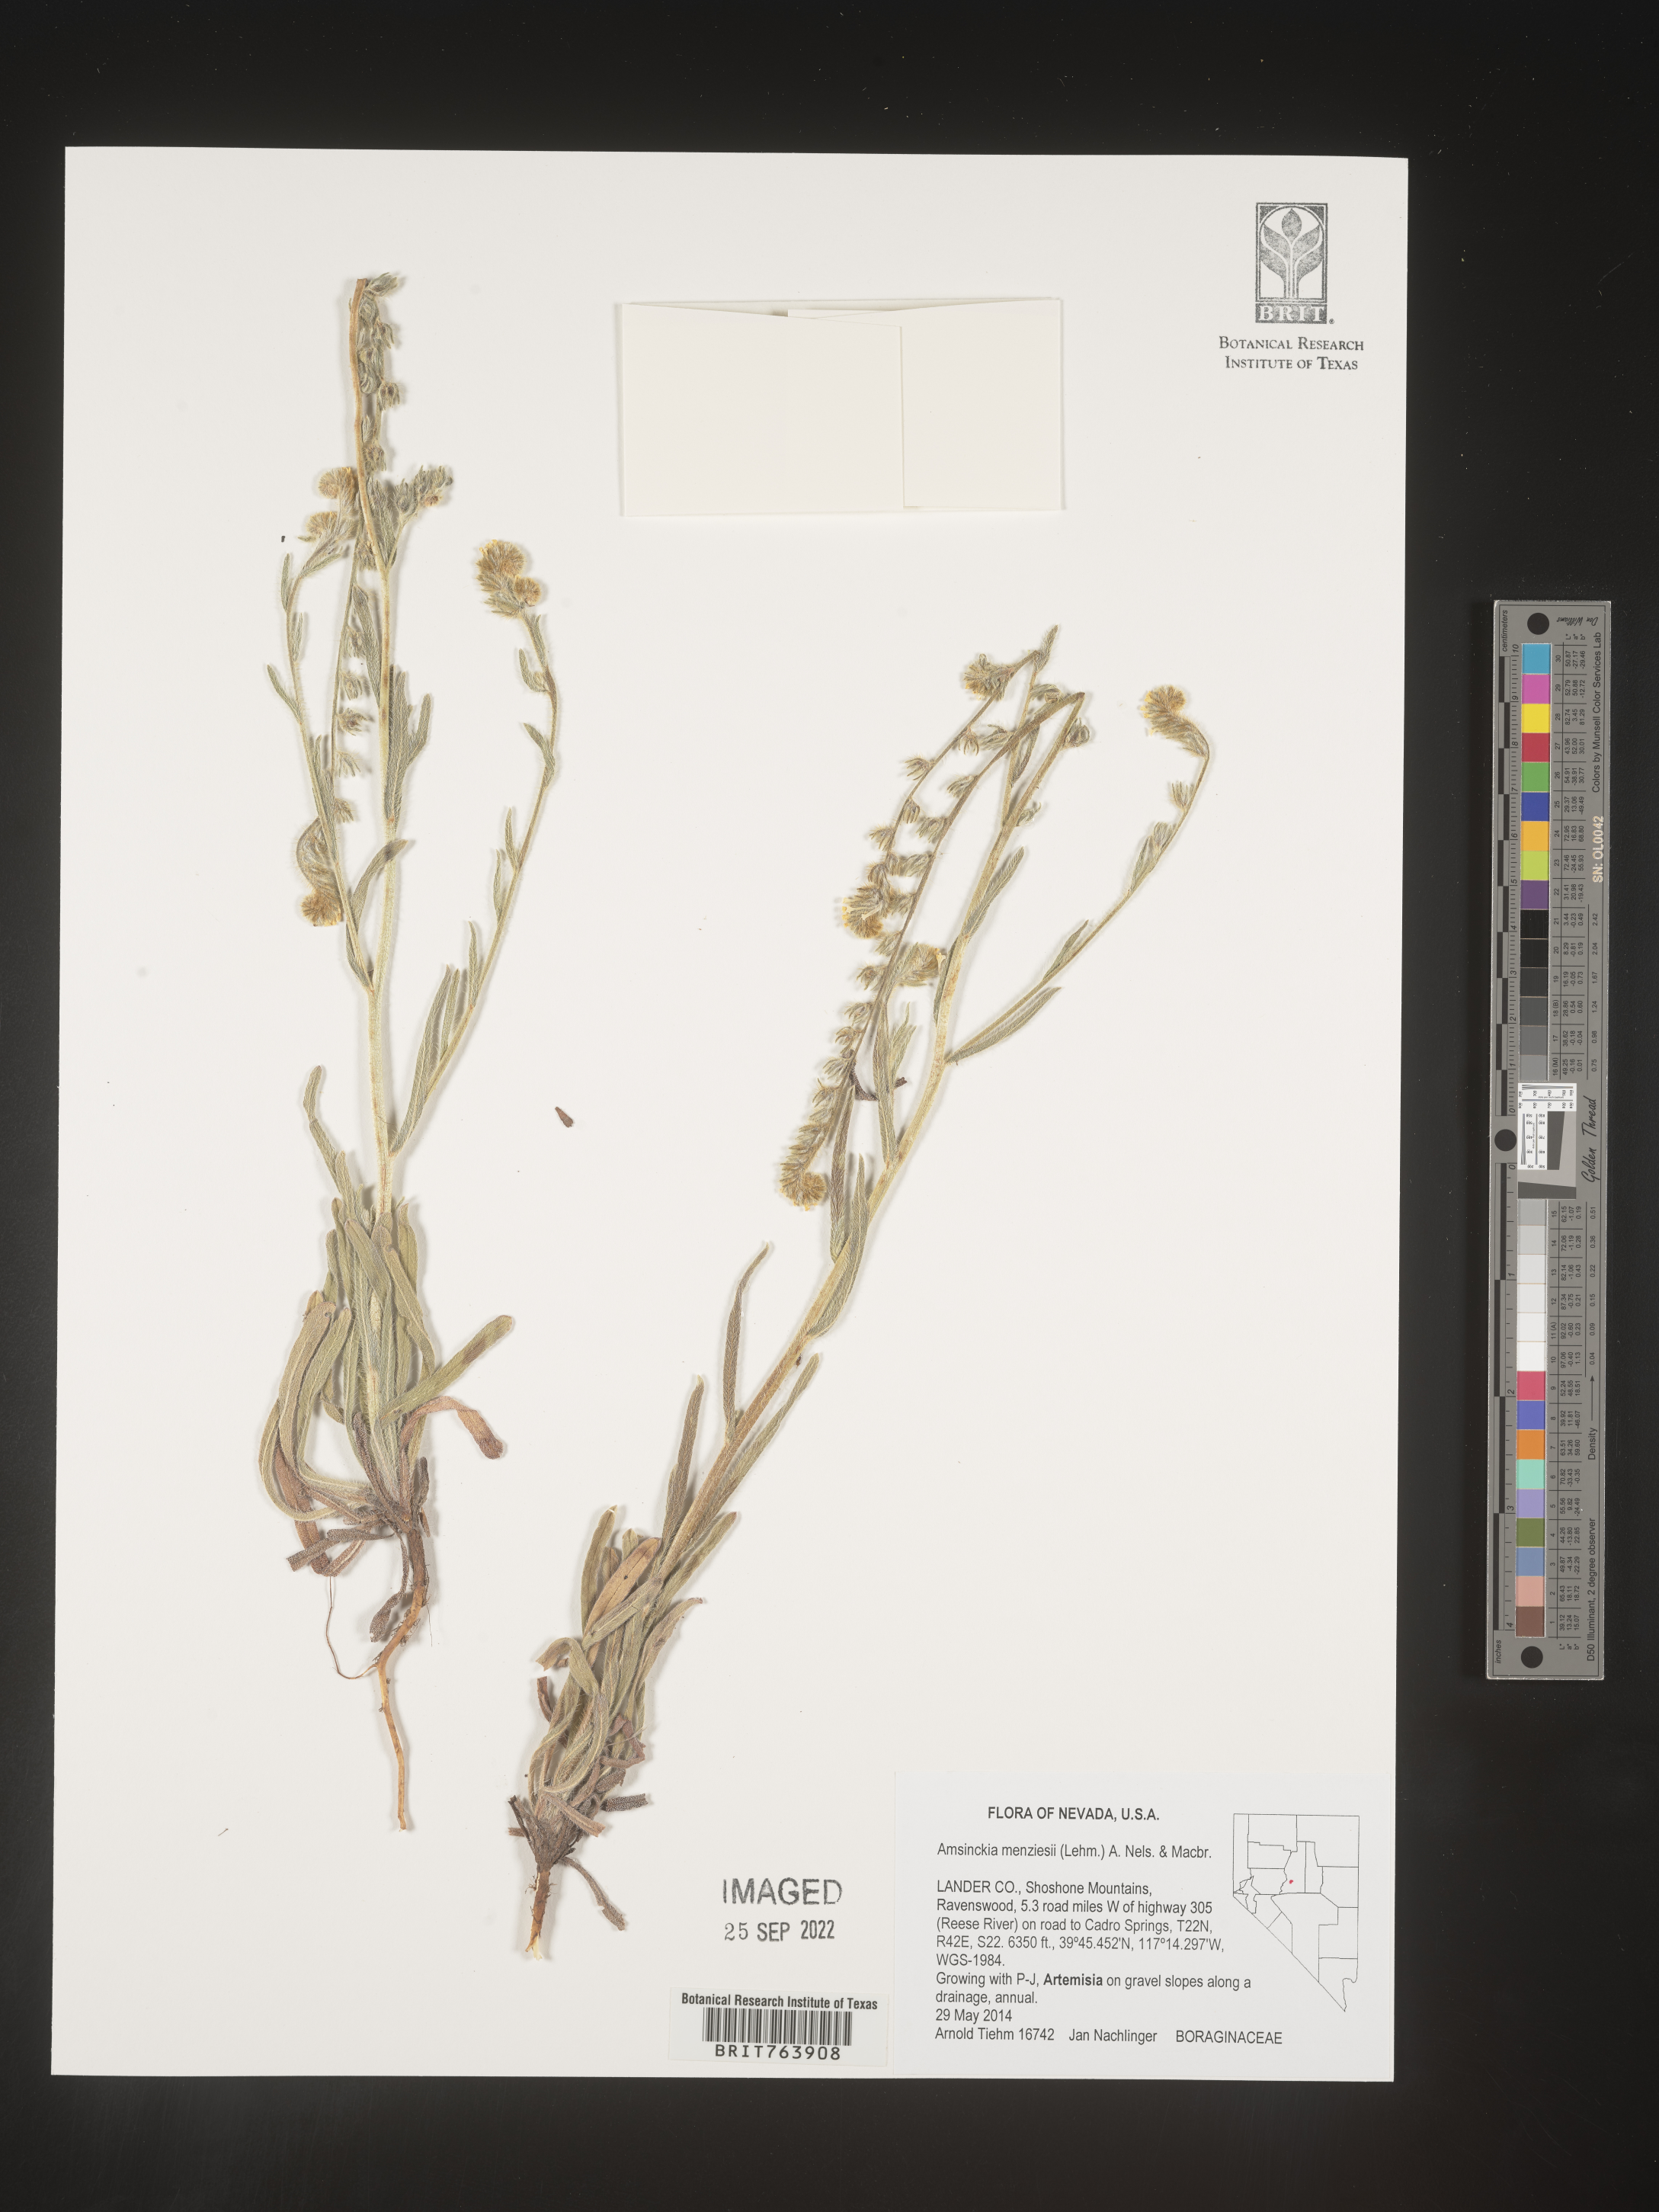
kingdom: Plantae
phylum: Tracheophyta
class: Magnoliopsida
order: Boraginales
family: Boraginaceae
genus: Amsinckia
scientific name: Amsinckia menziesii
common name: Menzies' fiddleneck
